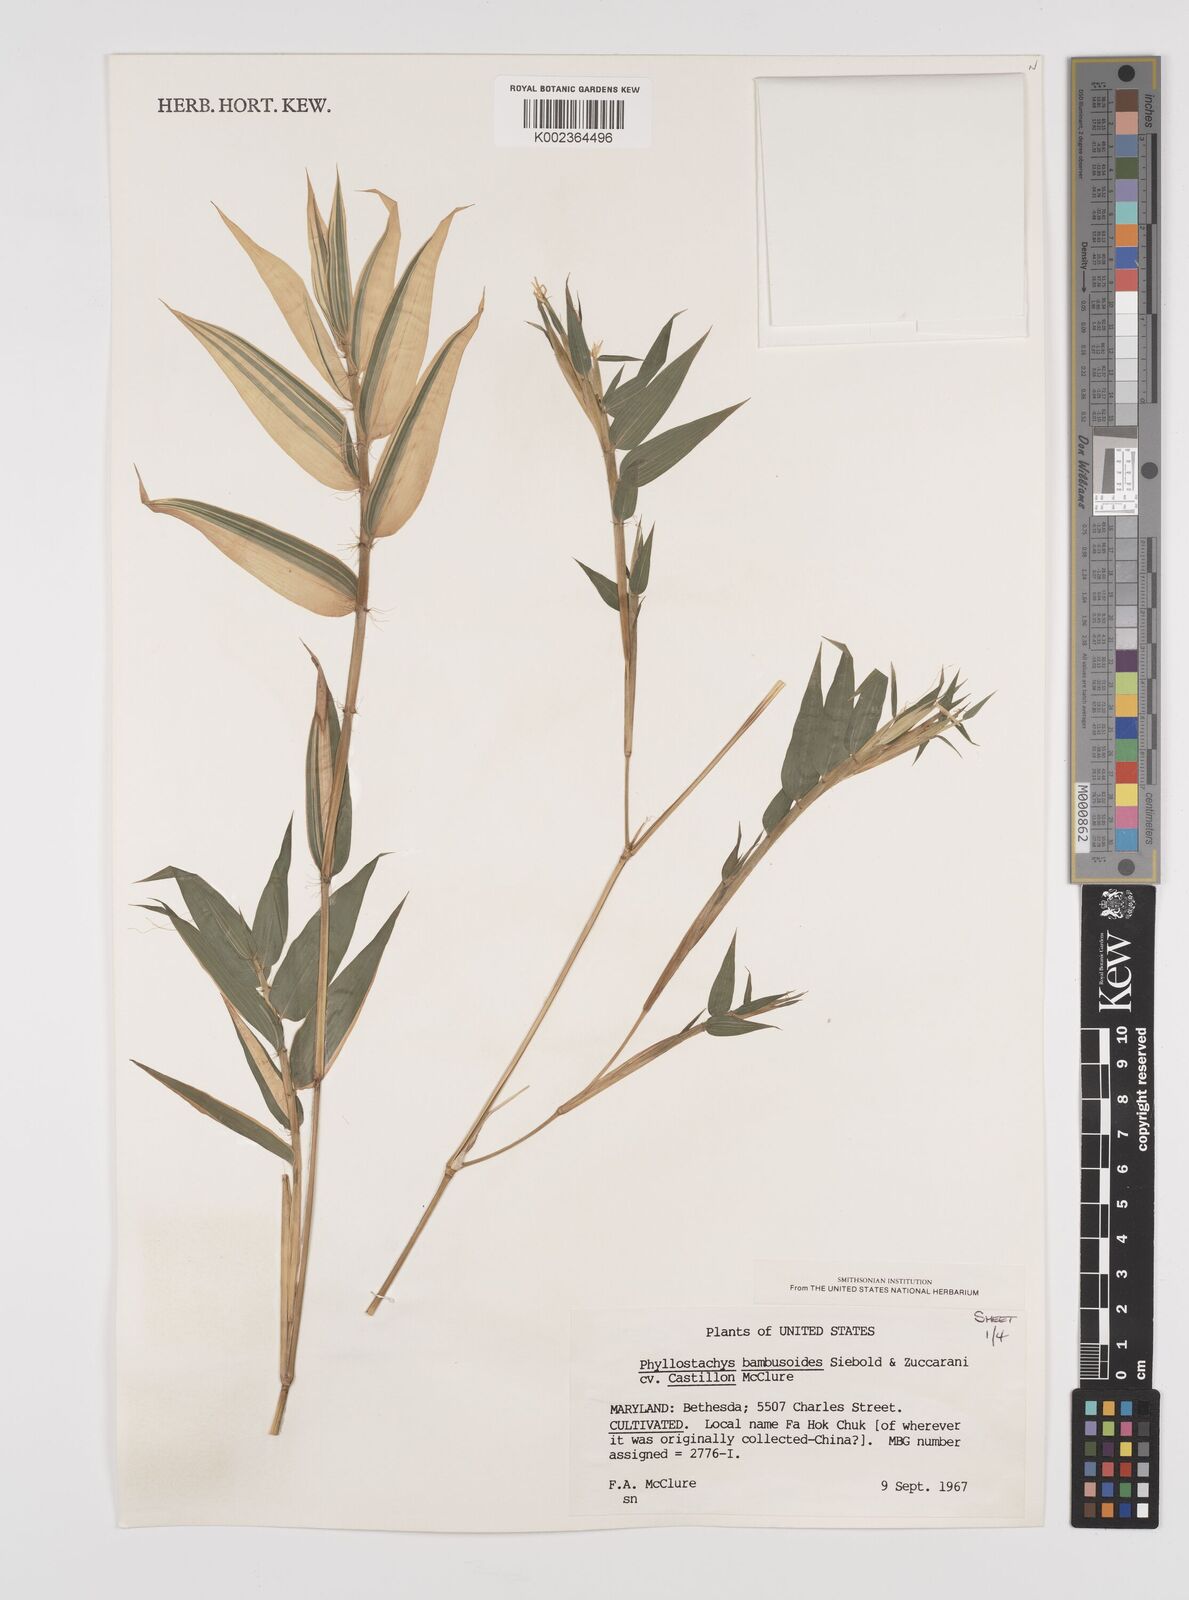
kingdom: Plantae
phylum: Tracheophyta
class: Liliopsida
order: Poales
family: Poaceae
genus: Phyllostachys
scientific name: Phyllostachys reticulata
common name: Bamboo
